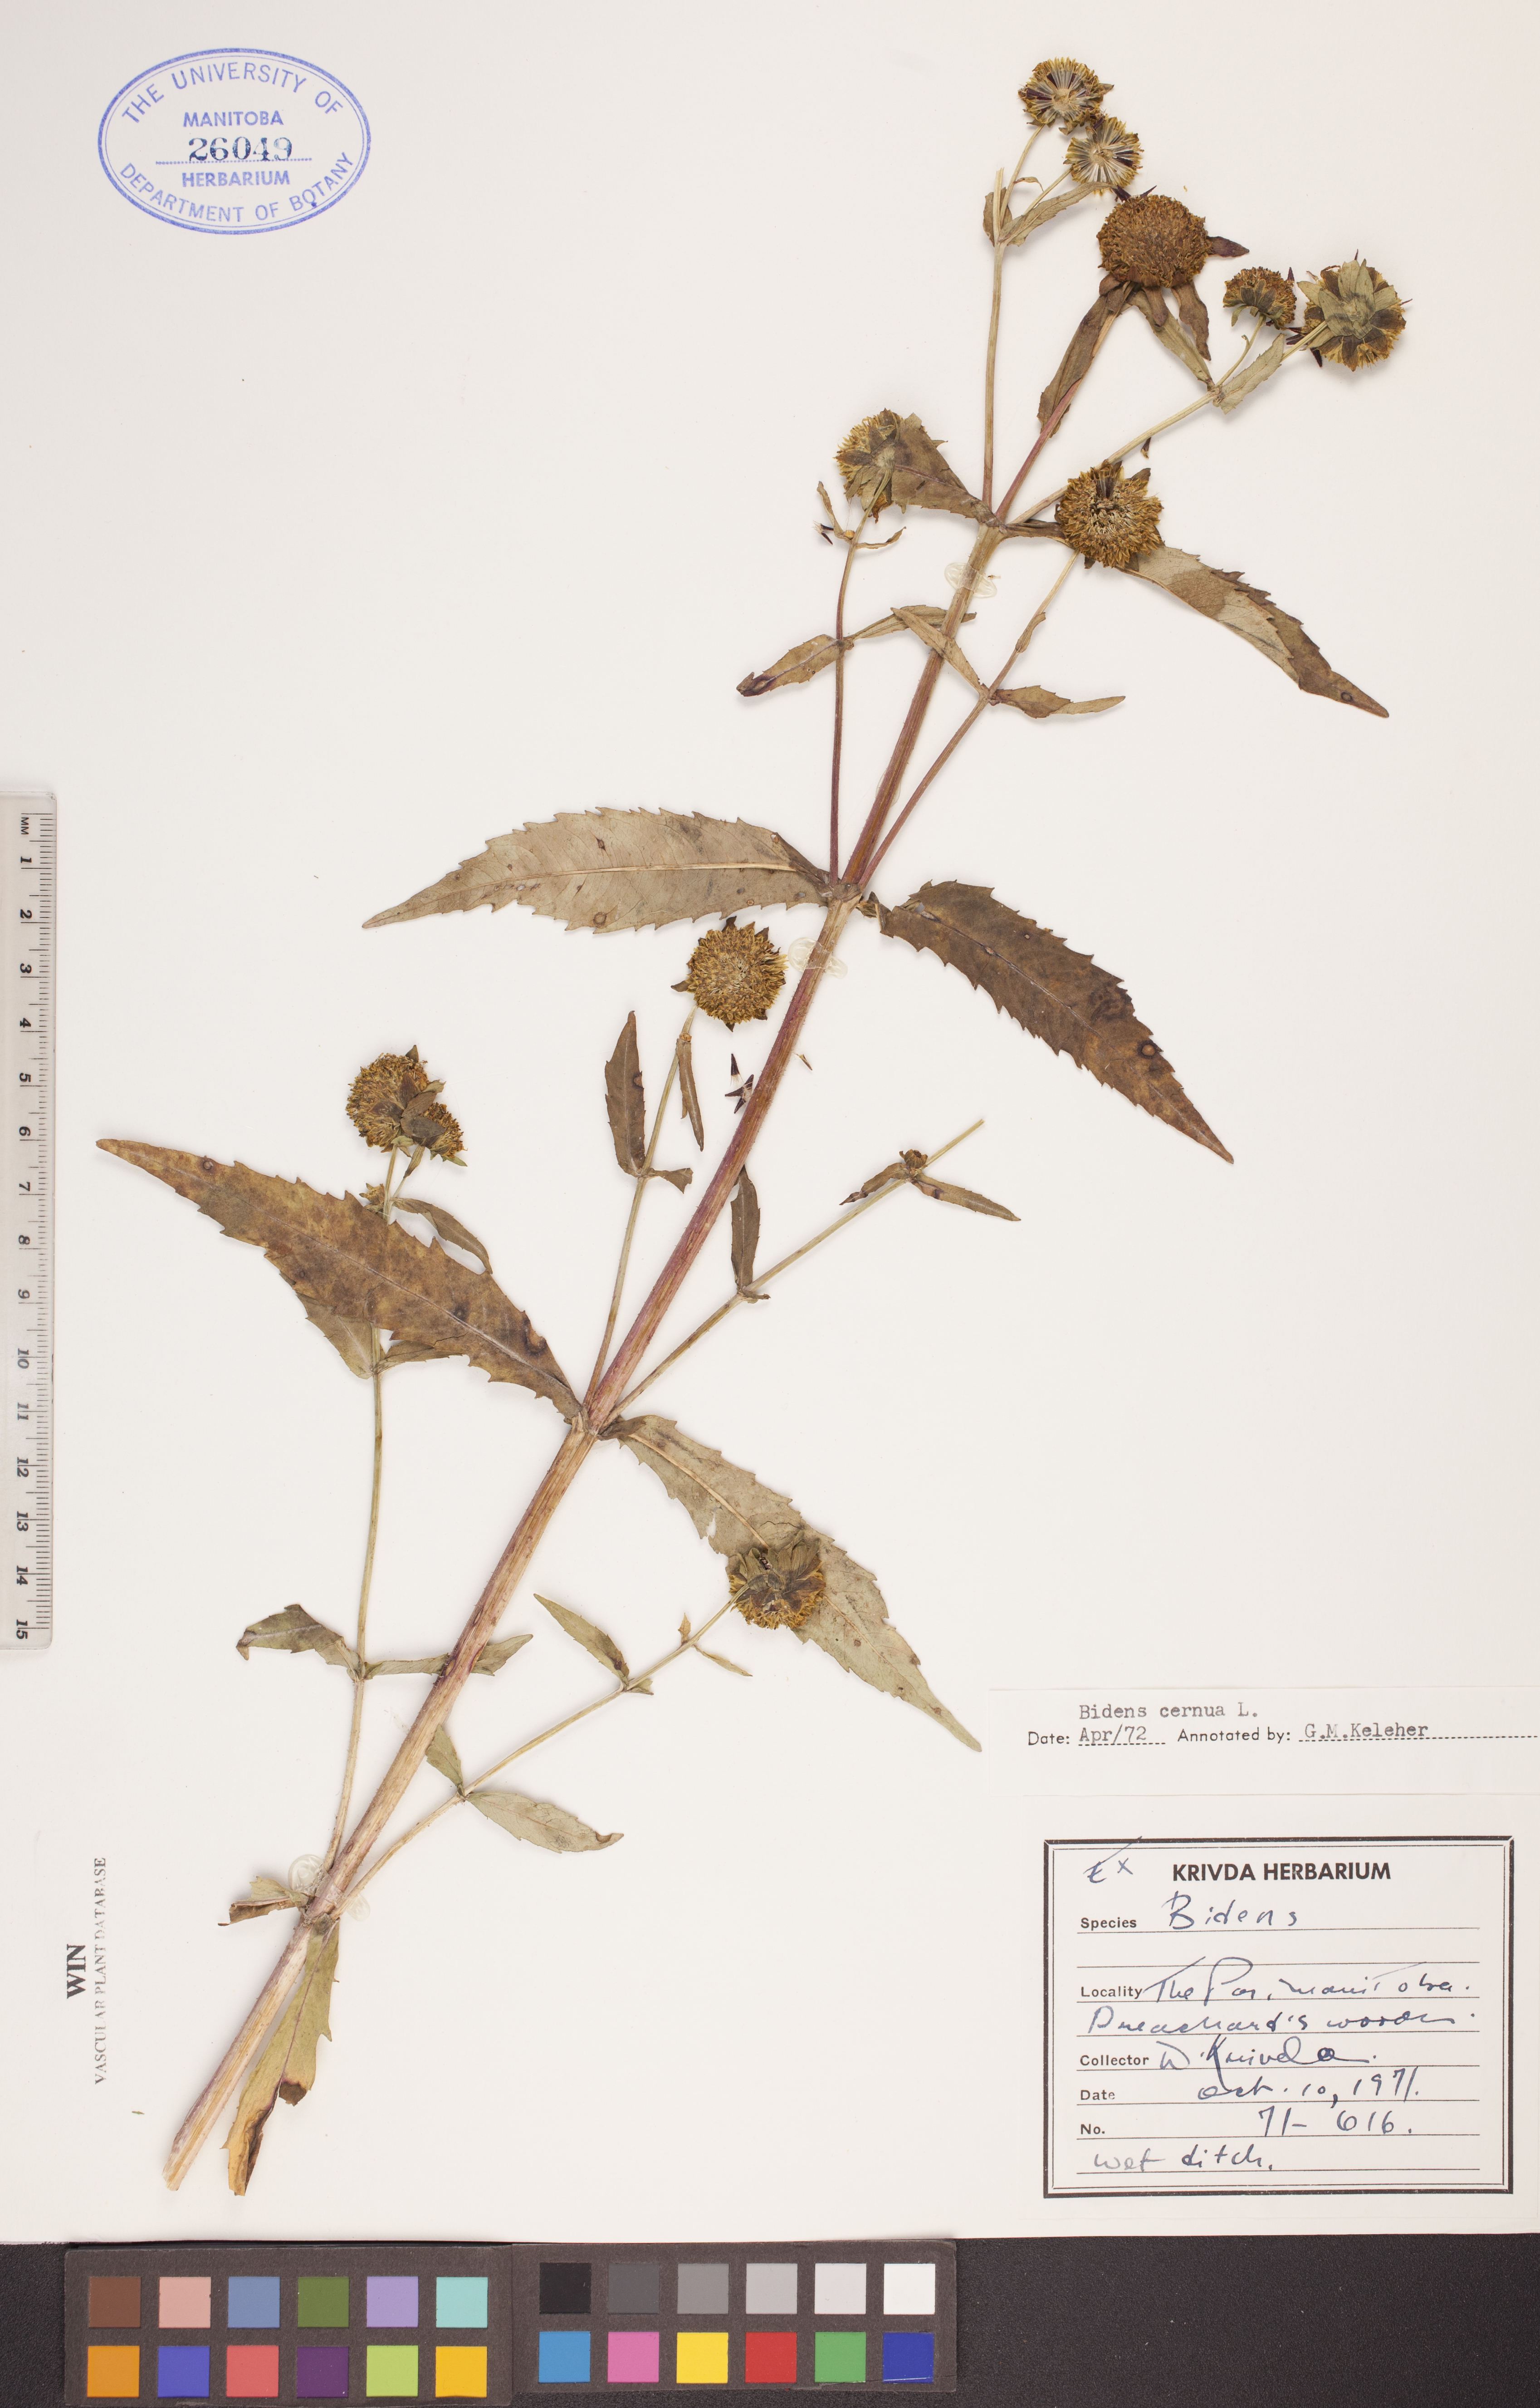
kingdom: Plantae
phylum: Tracheophyta
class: Magnoliopsida
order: Asterales
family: Asteraceae
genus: Bidens
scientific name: Bidens cernua
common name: Nodding bur-marigold
